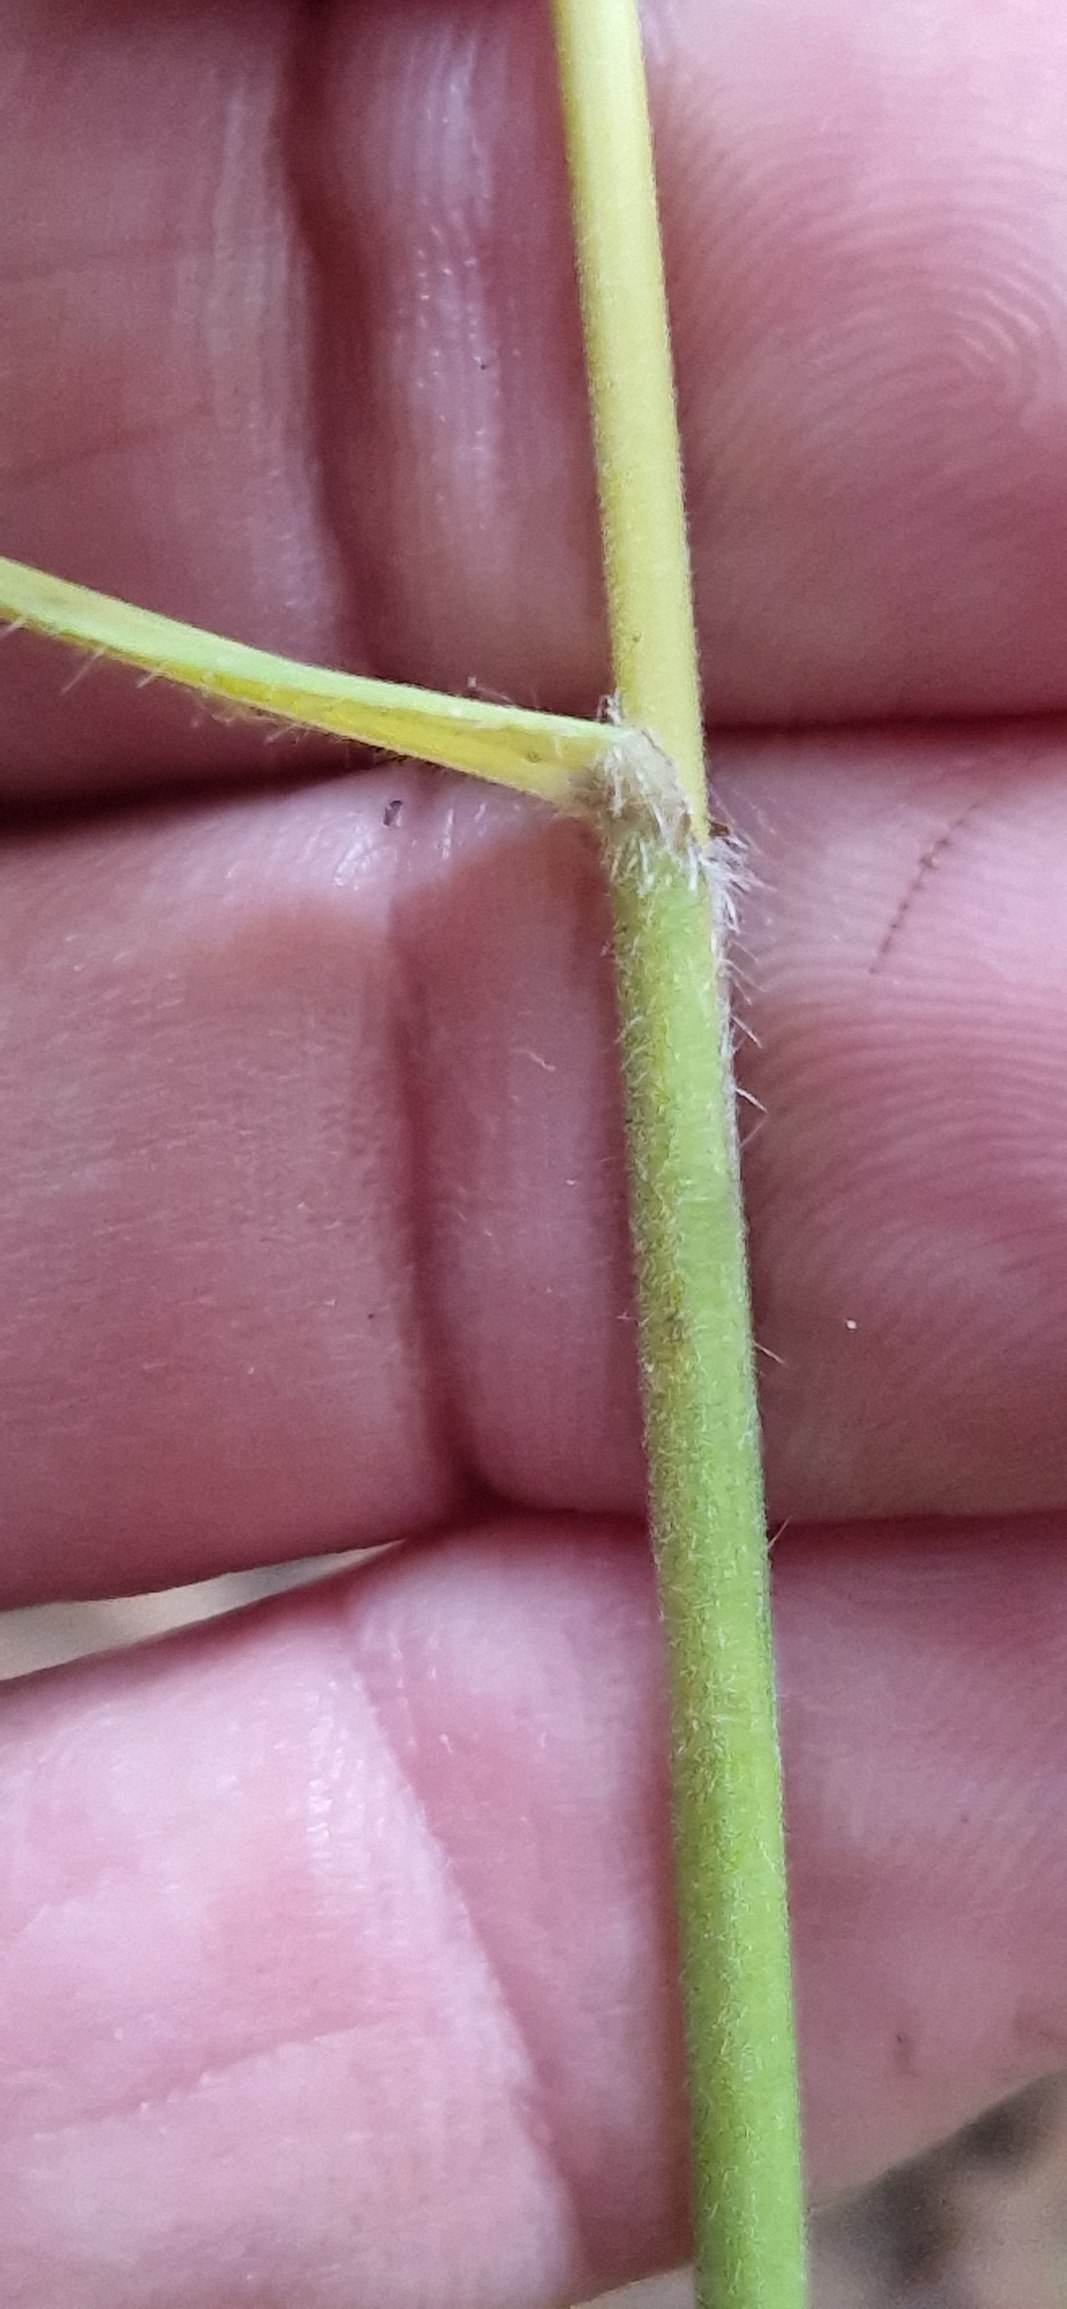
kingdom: Plantae
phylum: Tracheophyta
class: Liliopsida
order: Poales
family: Poaceae
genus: Bromus
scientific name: Bromus benekenii
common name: Tidlig skov-hejre
